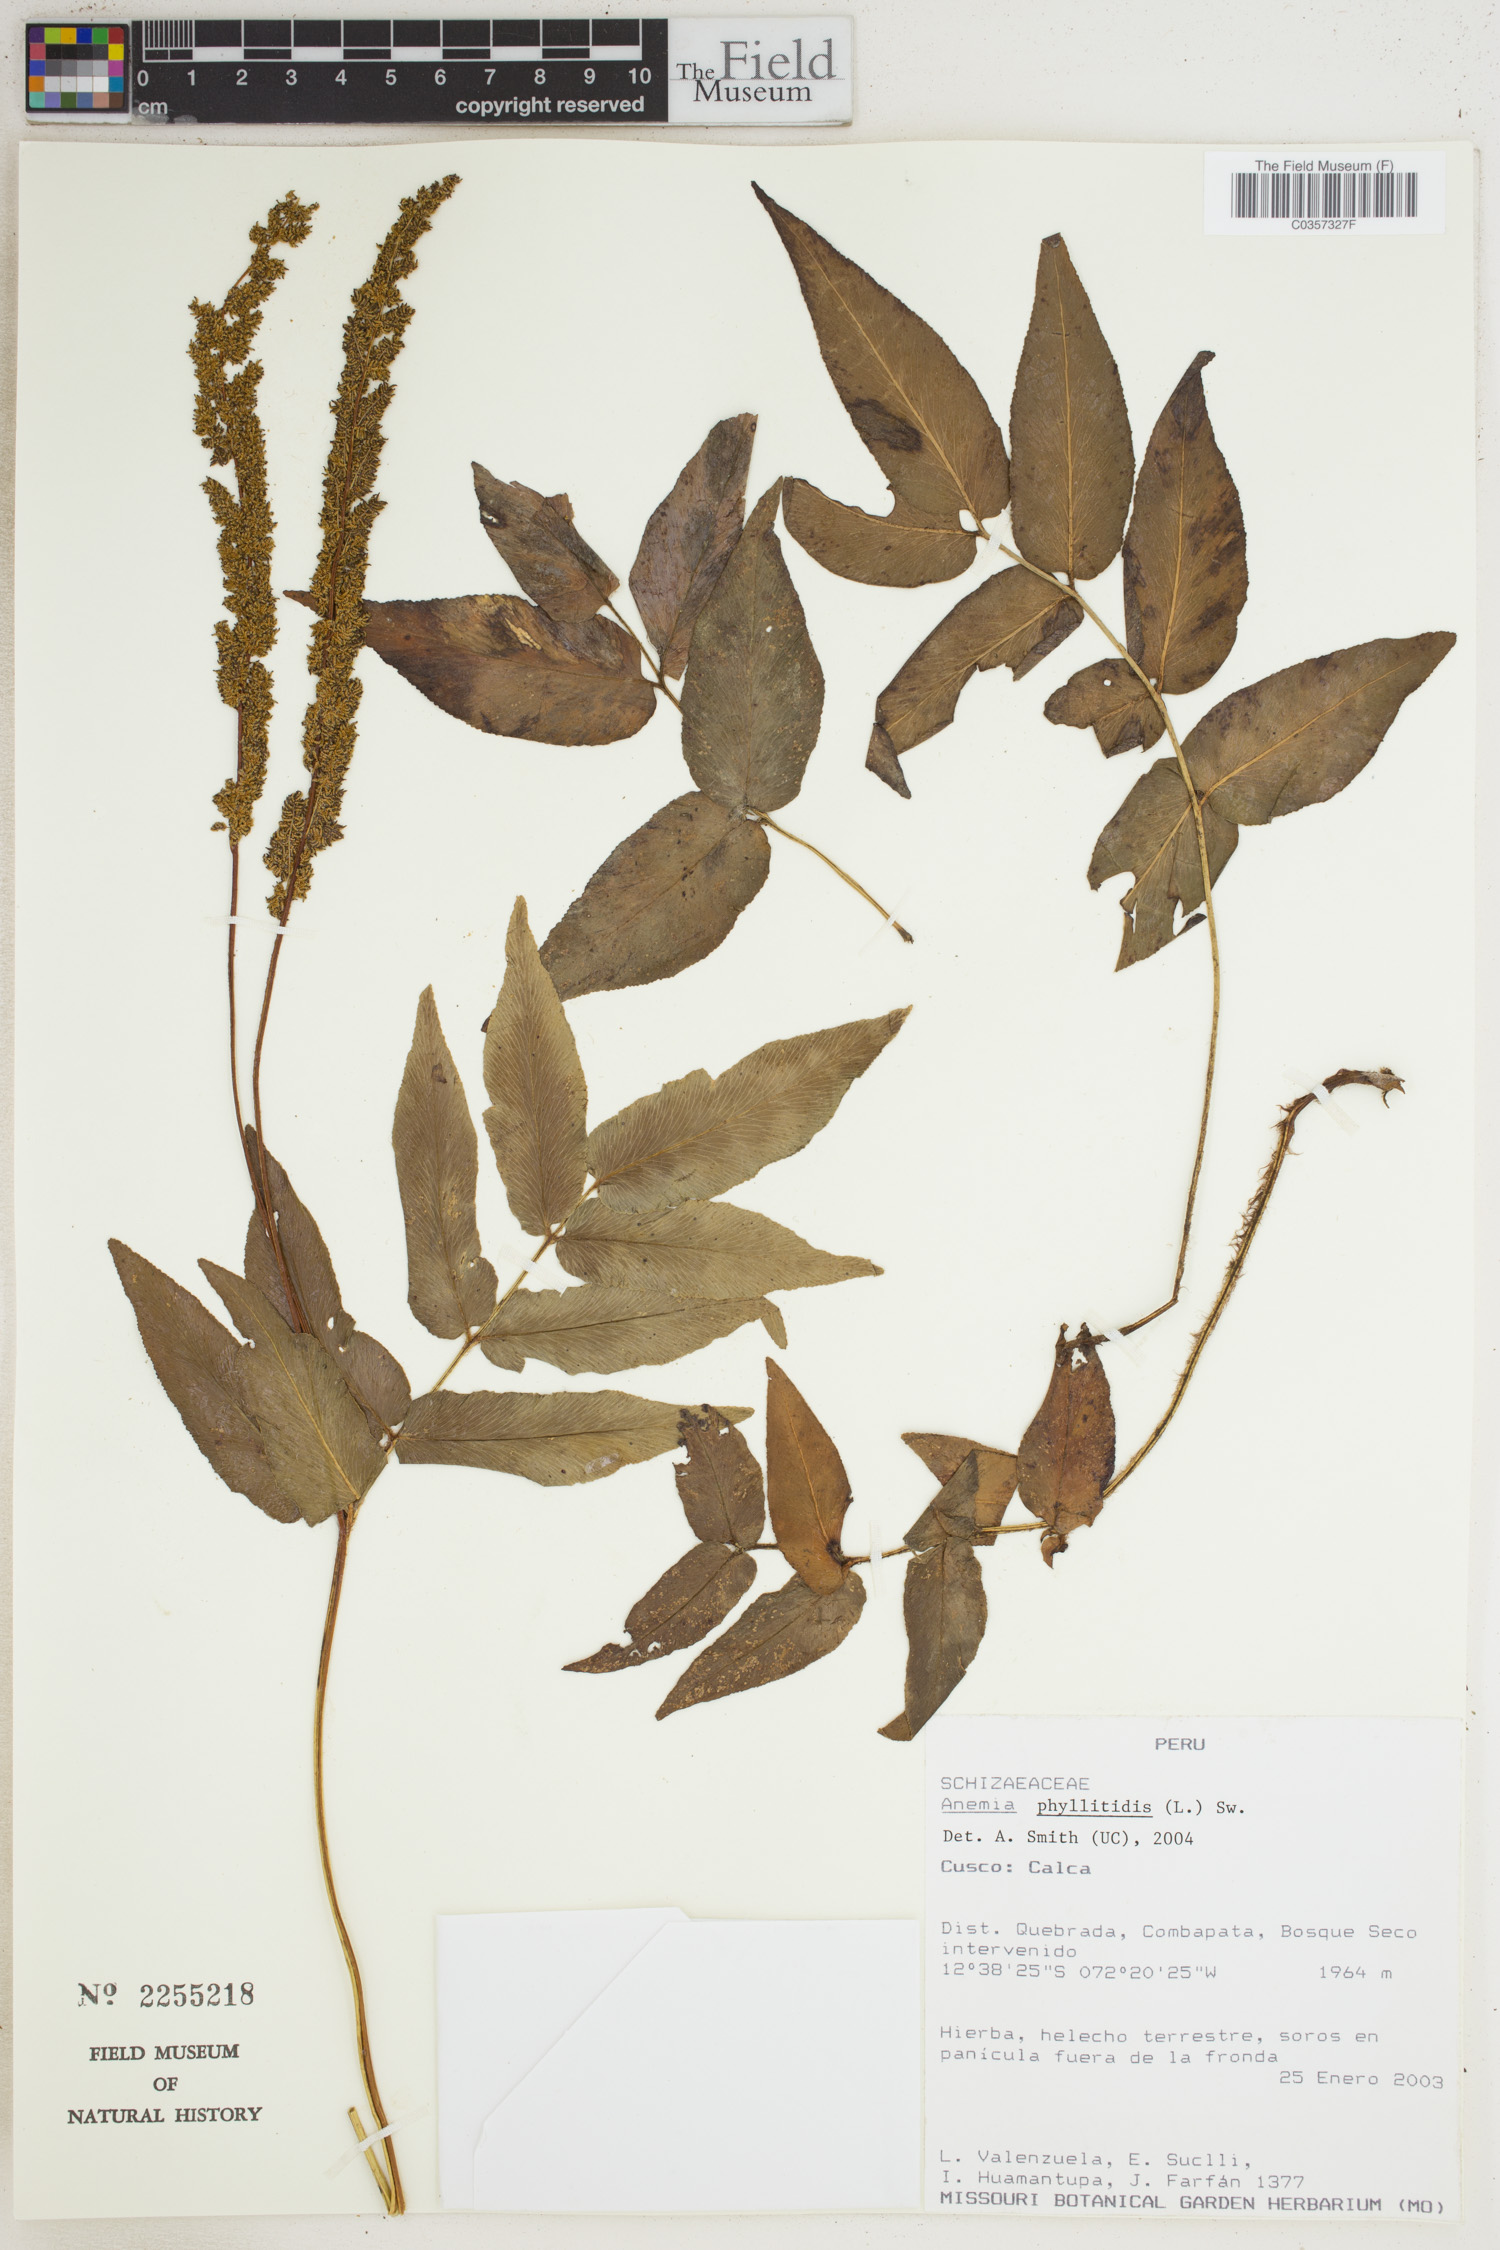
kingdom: Plantae
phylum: Tracheophyta
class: Polypodiopsida
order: Schizaeales
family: Anemiaceae
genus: Anemia
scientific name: Anemia phyllitidis
